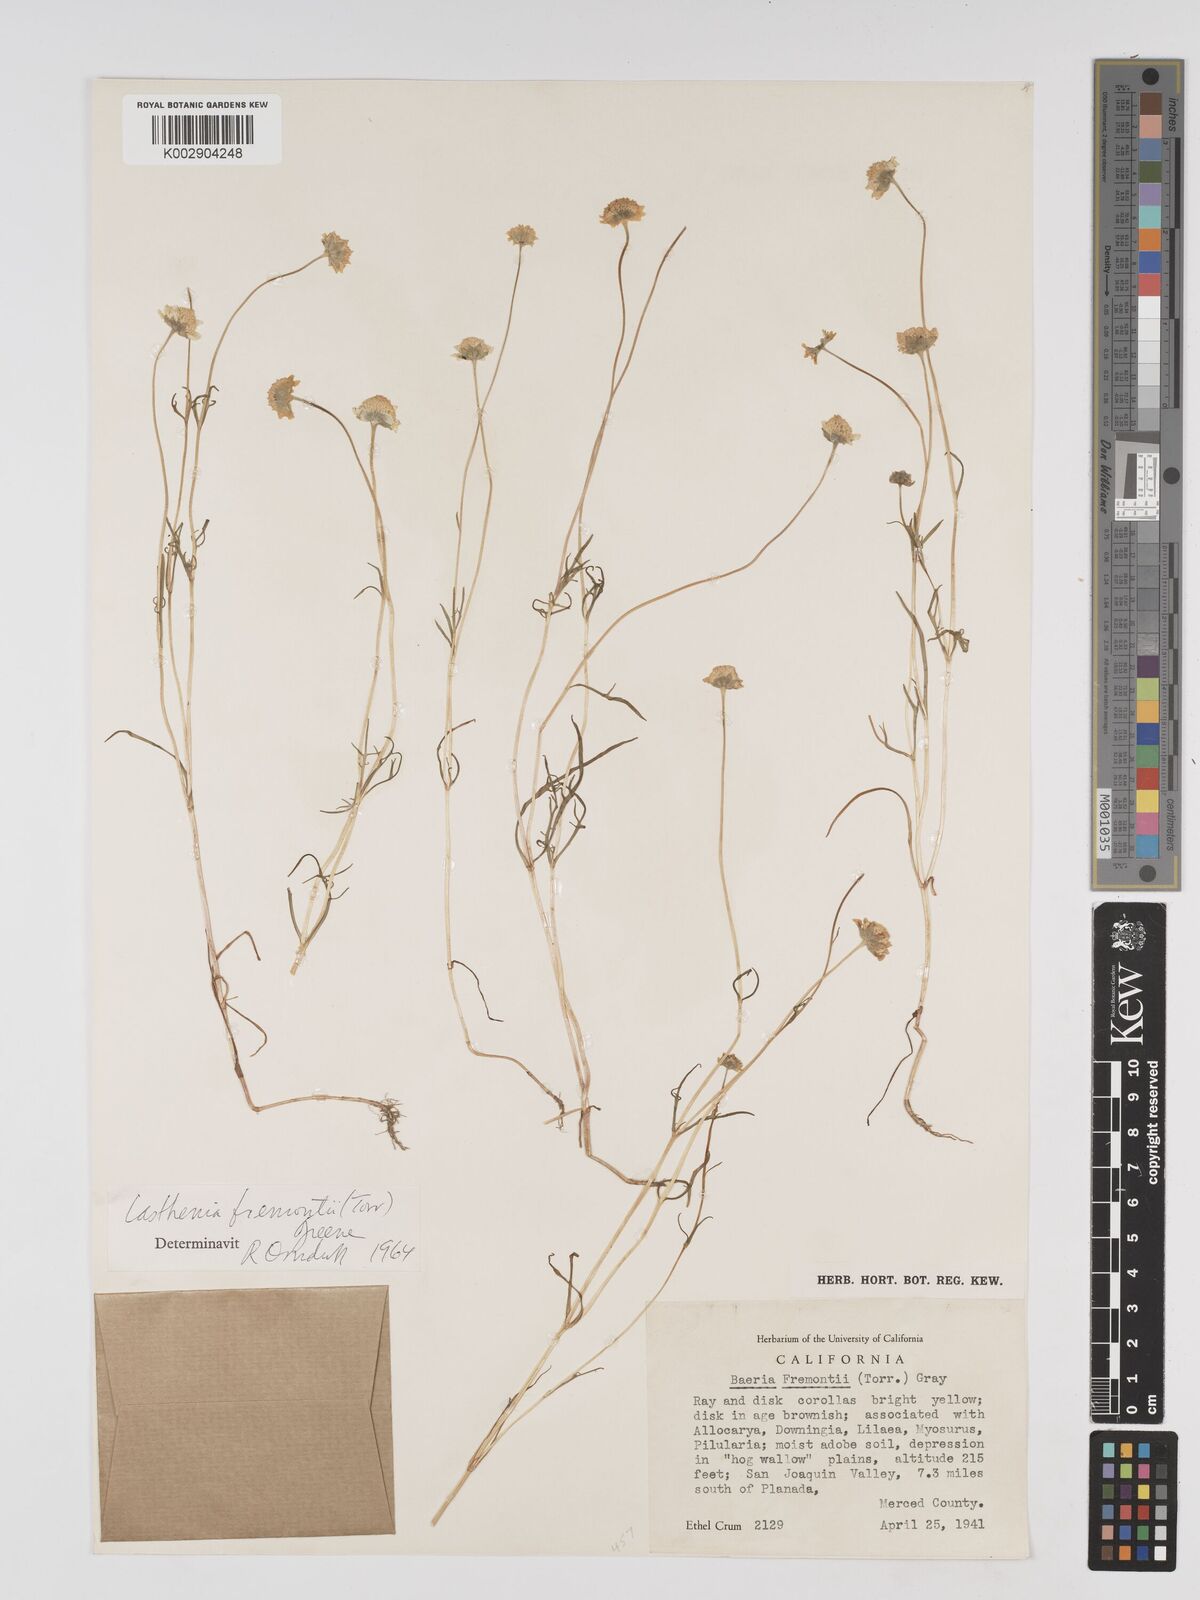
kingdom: Plantae
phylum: Tracheophyta
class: Magnoliopsida
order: Asterales
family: Asteraceae
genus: Lasthenia
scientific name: Lasthenia fremontii
